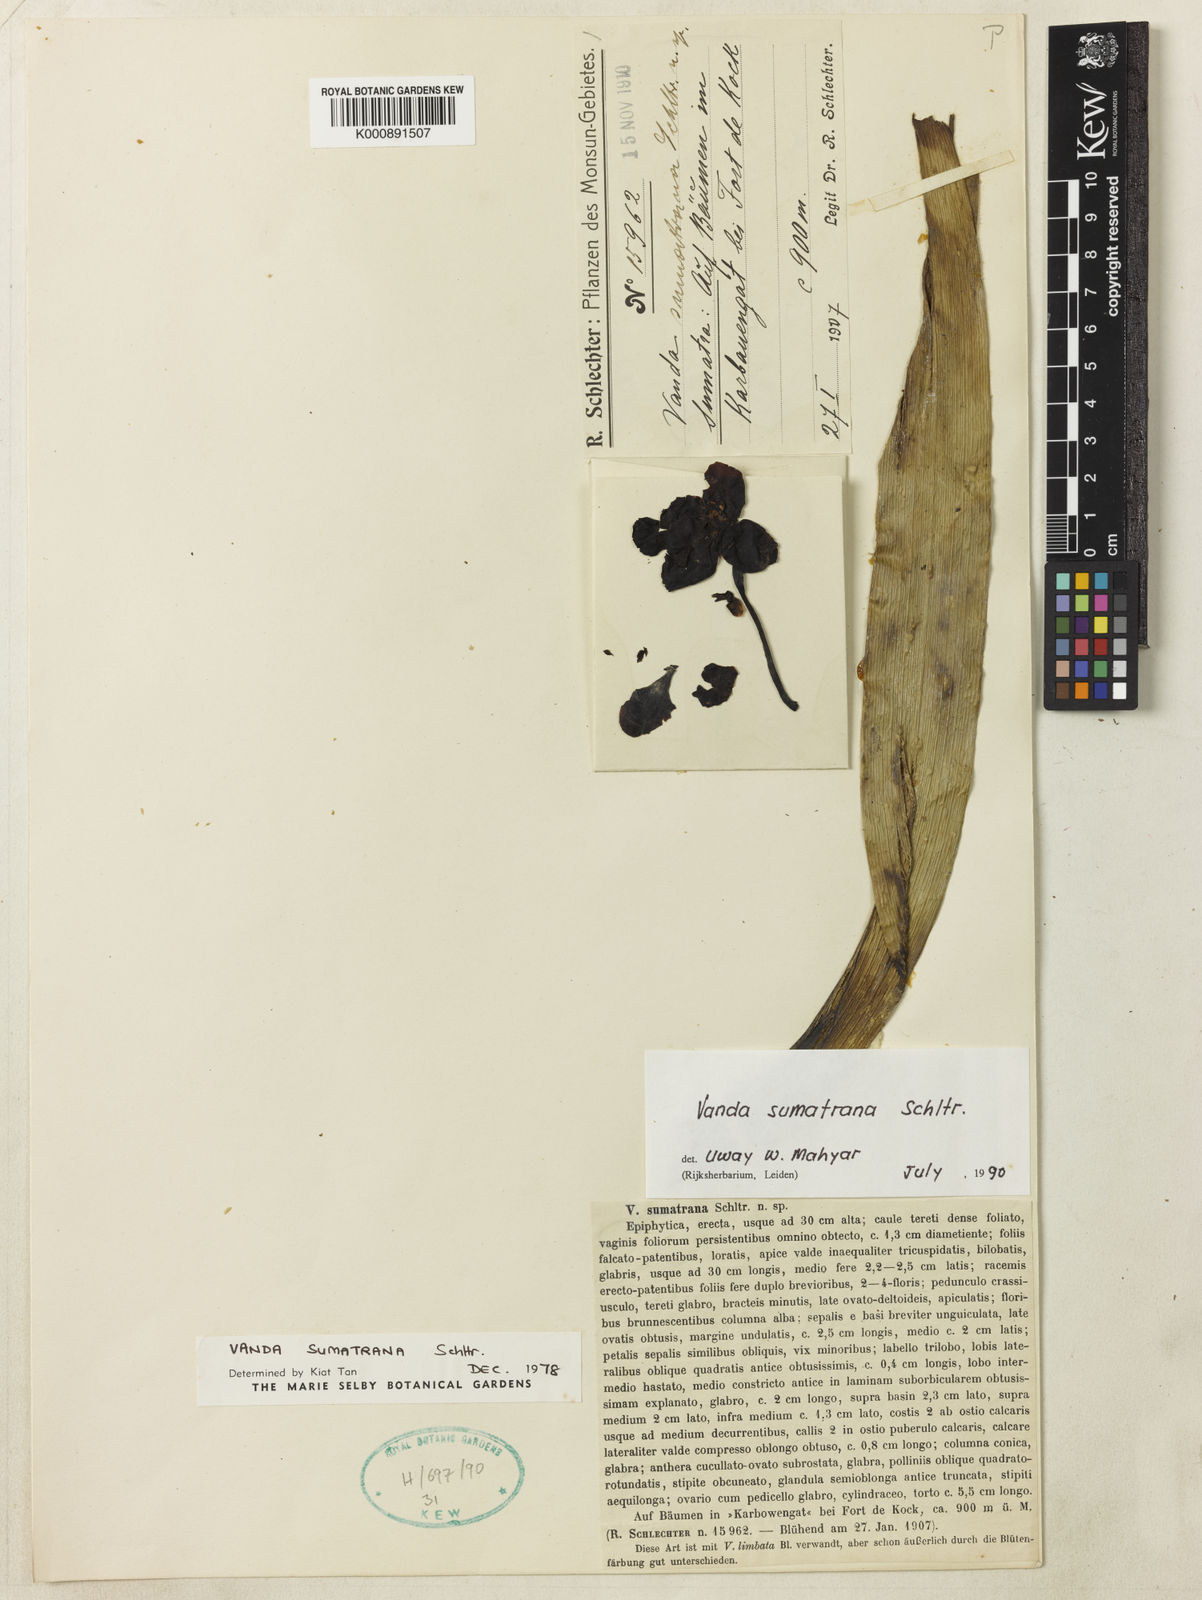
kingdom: Plantae
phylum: Tracheophyta
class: Liliopsida
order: Asparagales
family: Orchidaceae
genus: Vanda
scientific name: Vanda sumatrana
